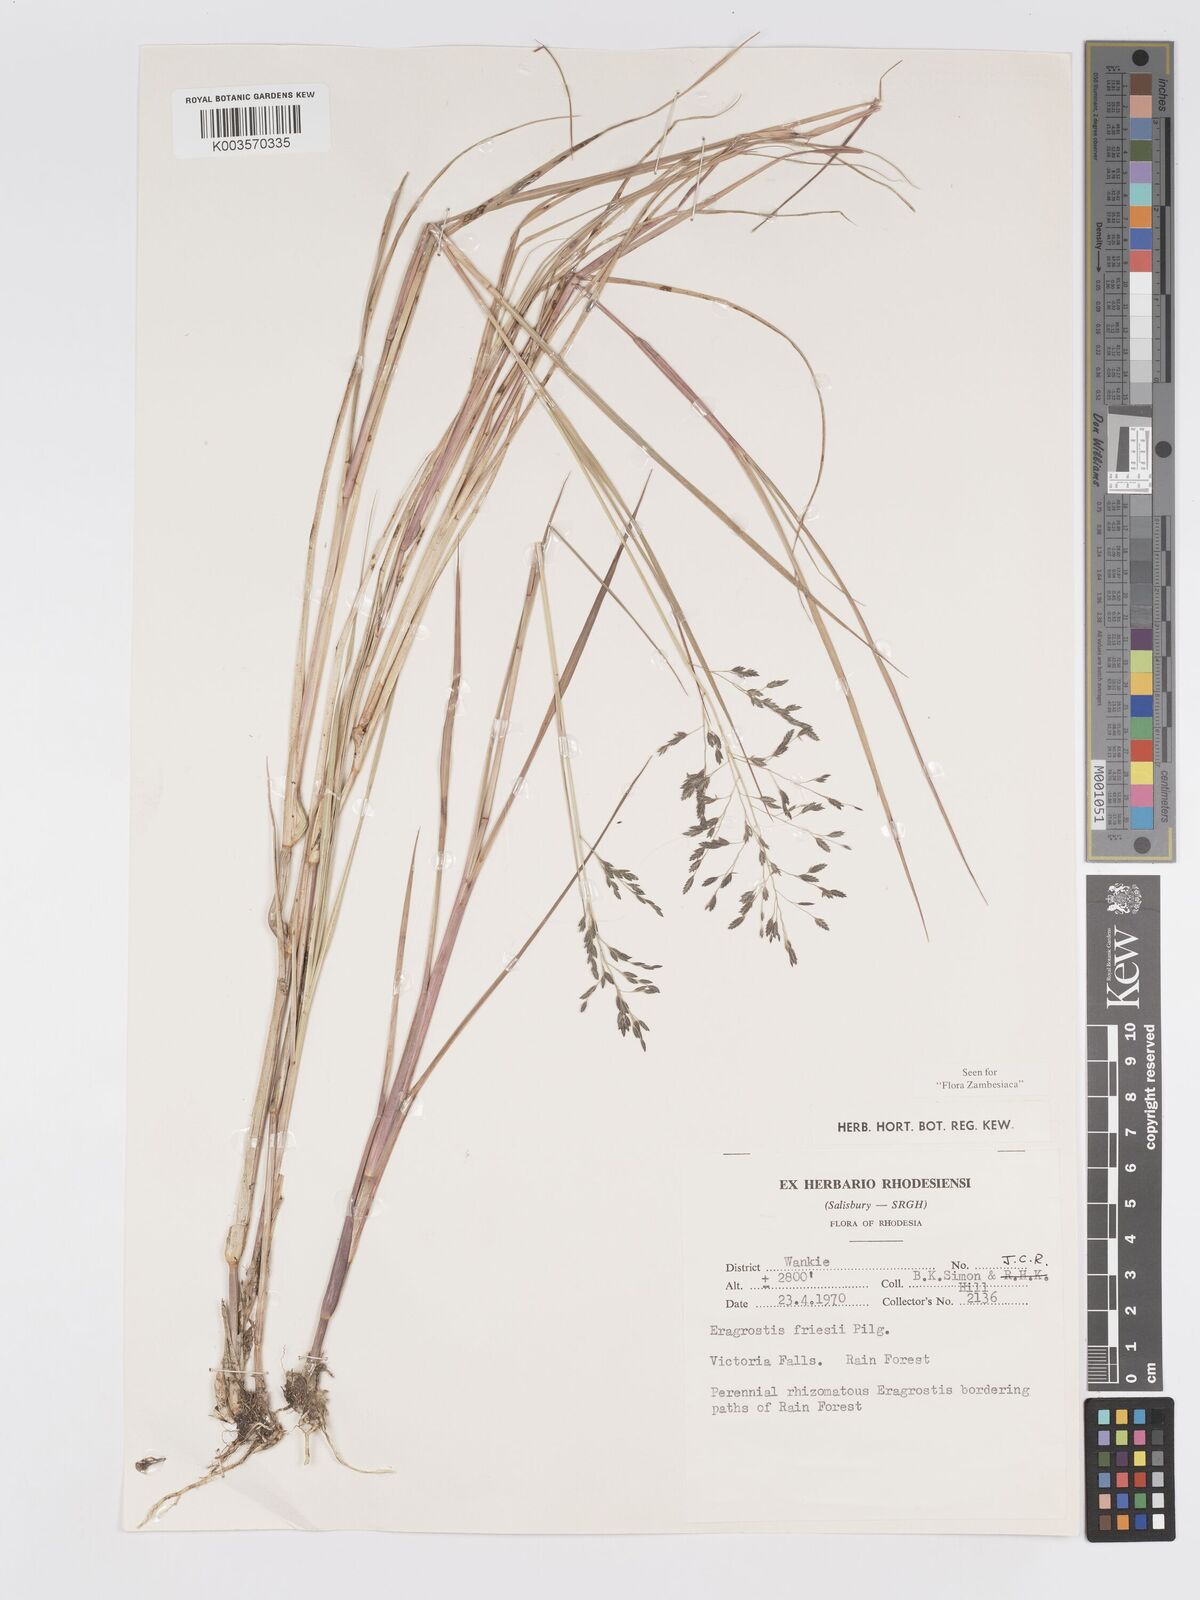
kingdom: Plantae
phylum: Tracheophyta
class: Liliopsida
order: Poales
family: Poaceae
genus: Eragrostis
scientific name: Eragrostis friesii
